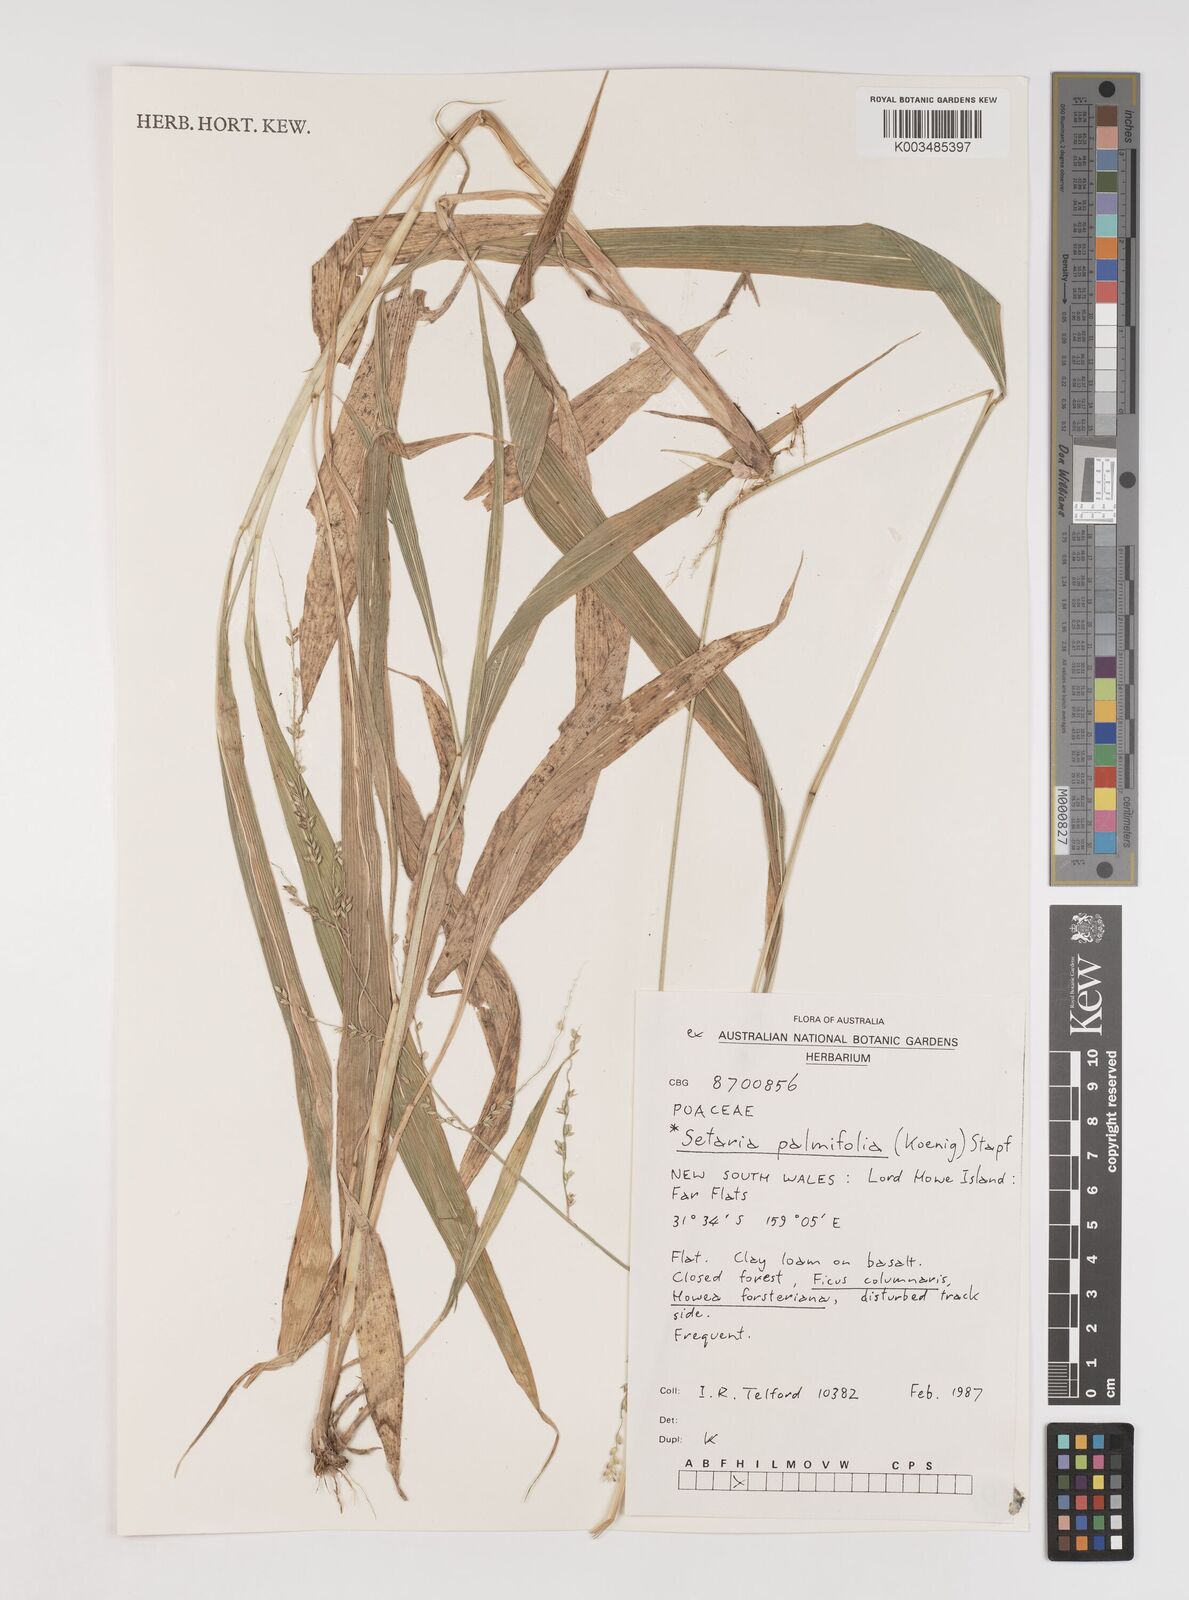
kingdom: Plantae
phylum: Tracheophyta
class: Liliopsida
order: Poales
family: Poaceae
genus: Setaria
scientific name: Setaria palmifolia
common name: Broadleaved bristlegrass
